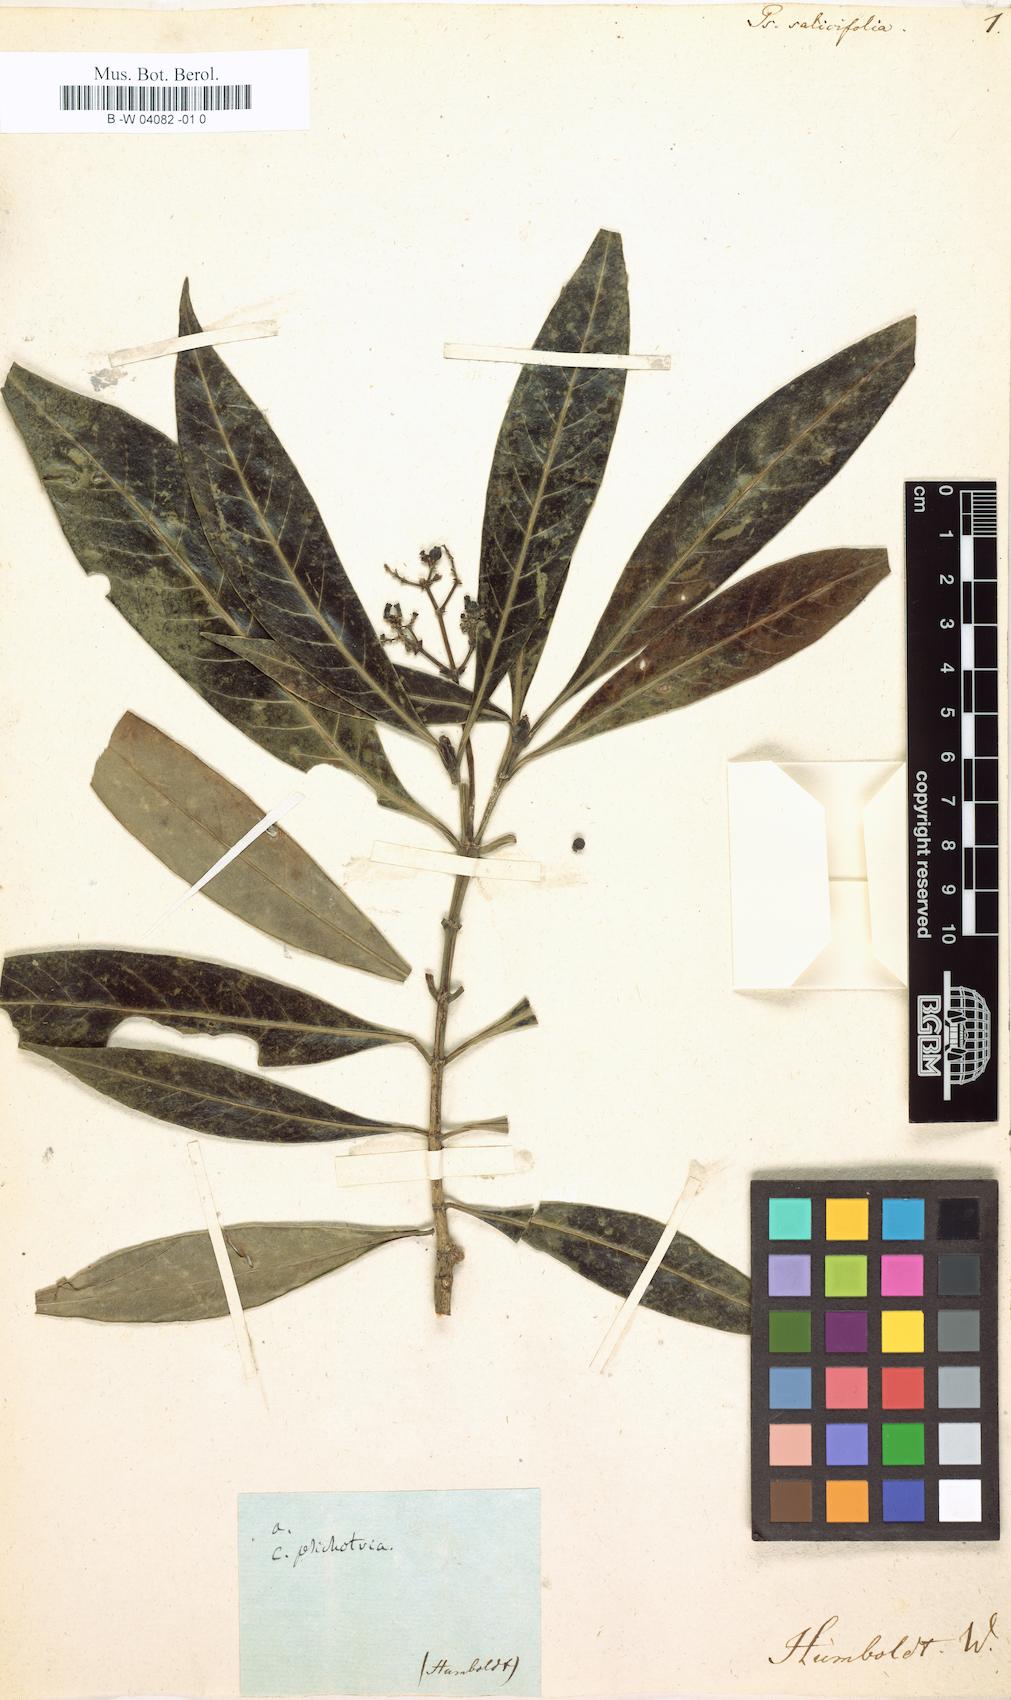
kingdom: Plantae
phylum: Tracheophyta
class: Magnoliopsida
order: Gentianales
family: Rubiaceae
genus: Palicourea
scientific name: Palicourea attenuata
